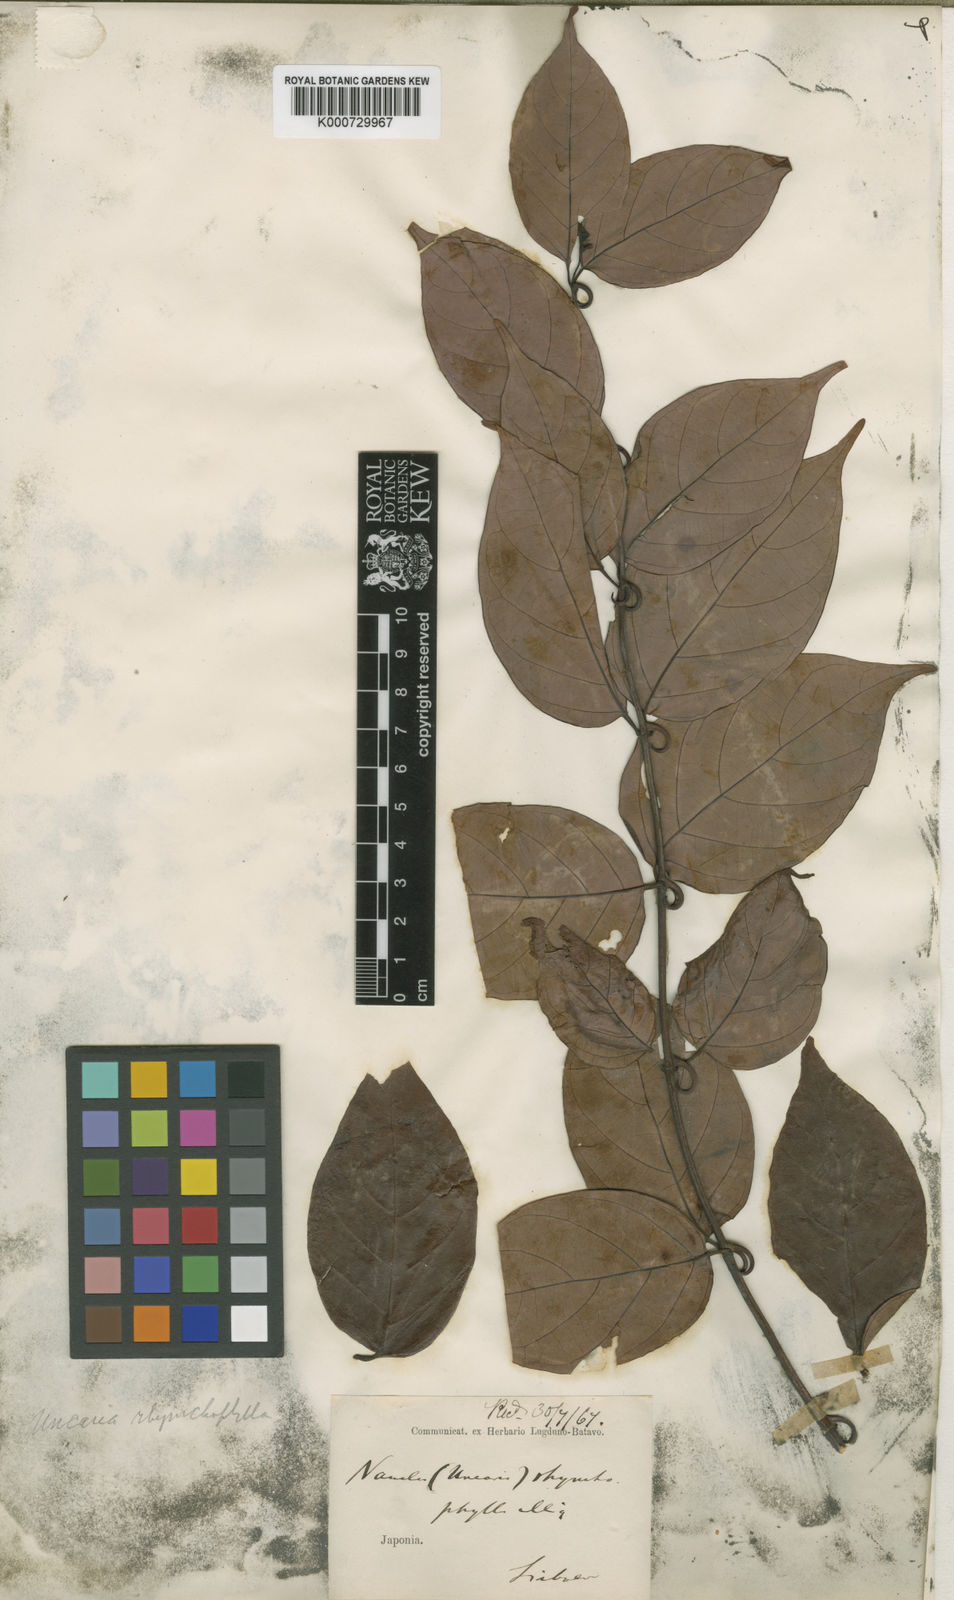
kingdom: Plantae
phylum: Tracheophyta
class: Magnoliopsida
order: Gentianales
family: Rubiaceae
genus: Uncaria
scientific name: Uncaria
